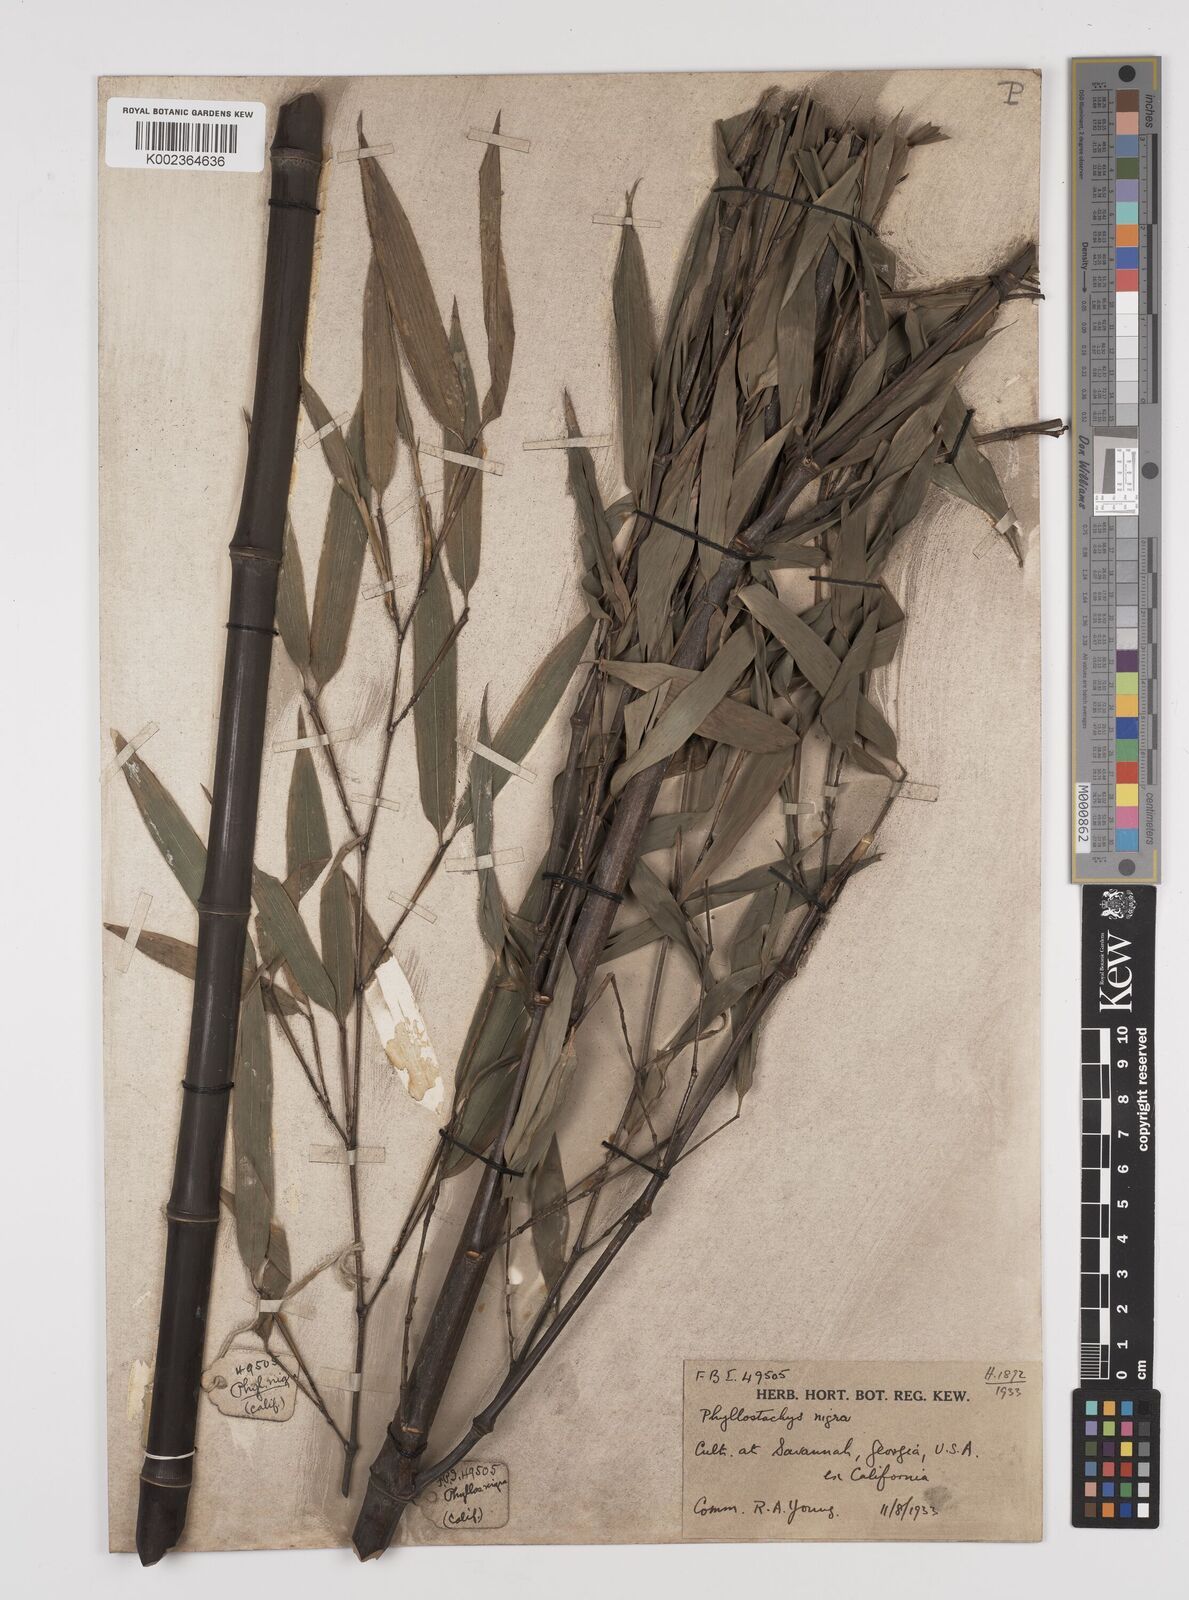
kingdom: Plantae
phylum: Tracheophyta
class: Liliopsida
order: Poales
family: Poaceae
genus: Phyllostachys
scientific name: Phyllostachys nigra
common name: Black bamboo
